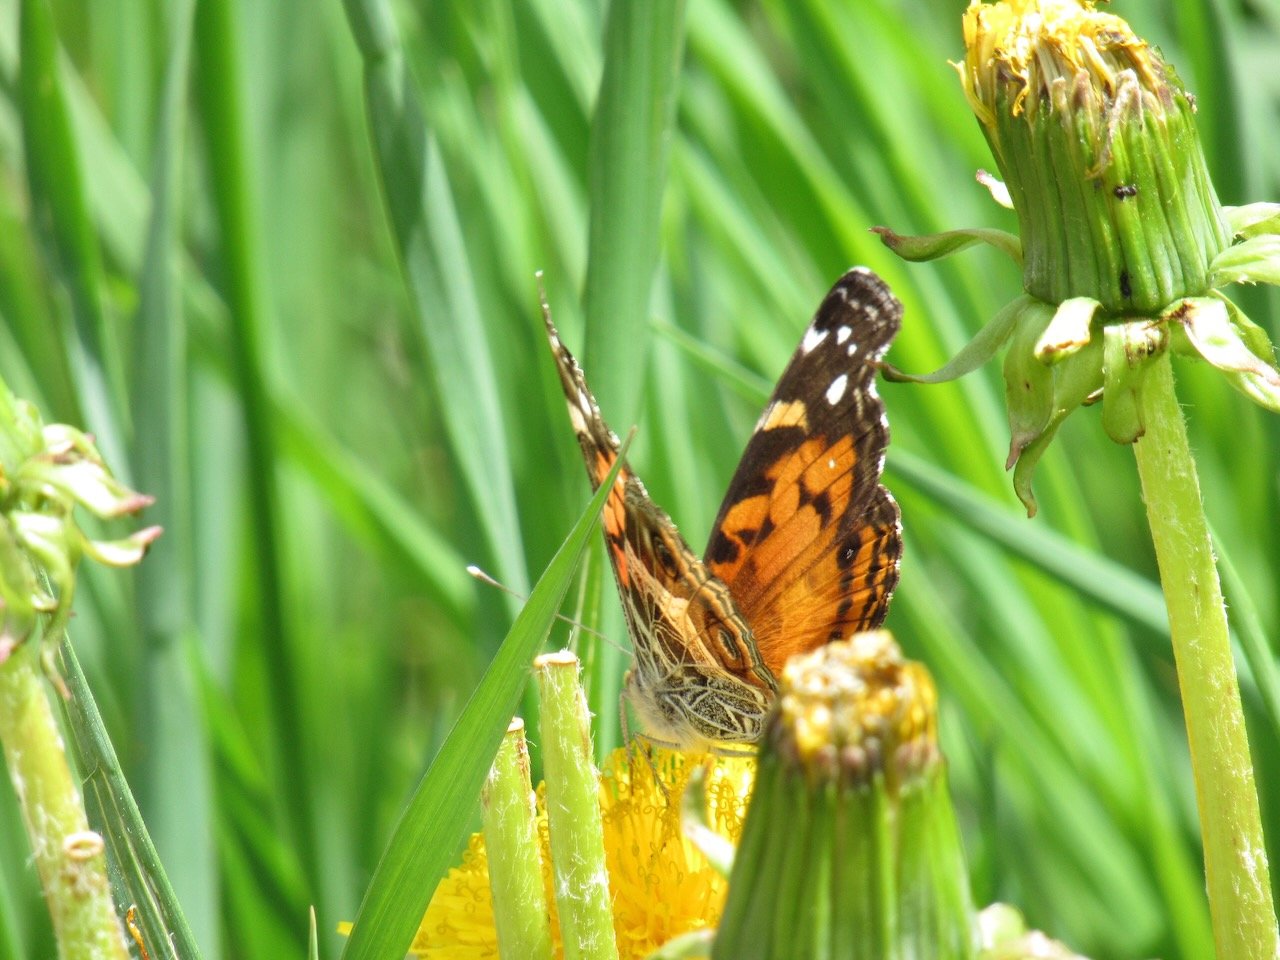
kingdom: Animalia
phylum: Arthropoda
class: Insecta
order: Lepidoptera
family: Nymphalidae
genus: Vanessa
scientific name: Vanessa virginiensis
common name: American Lady
